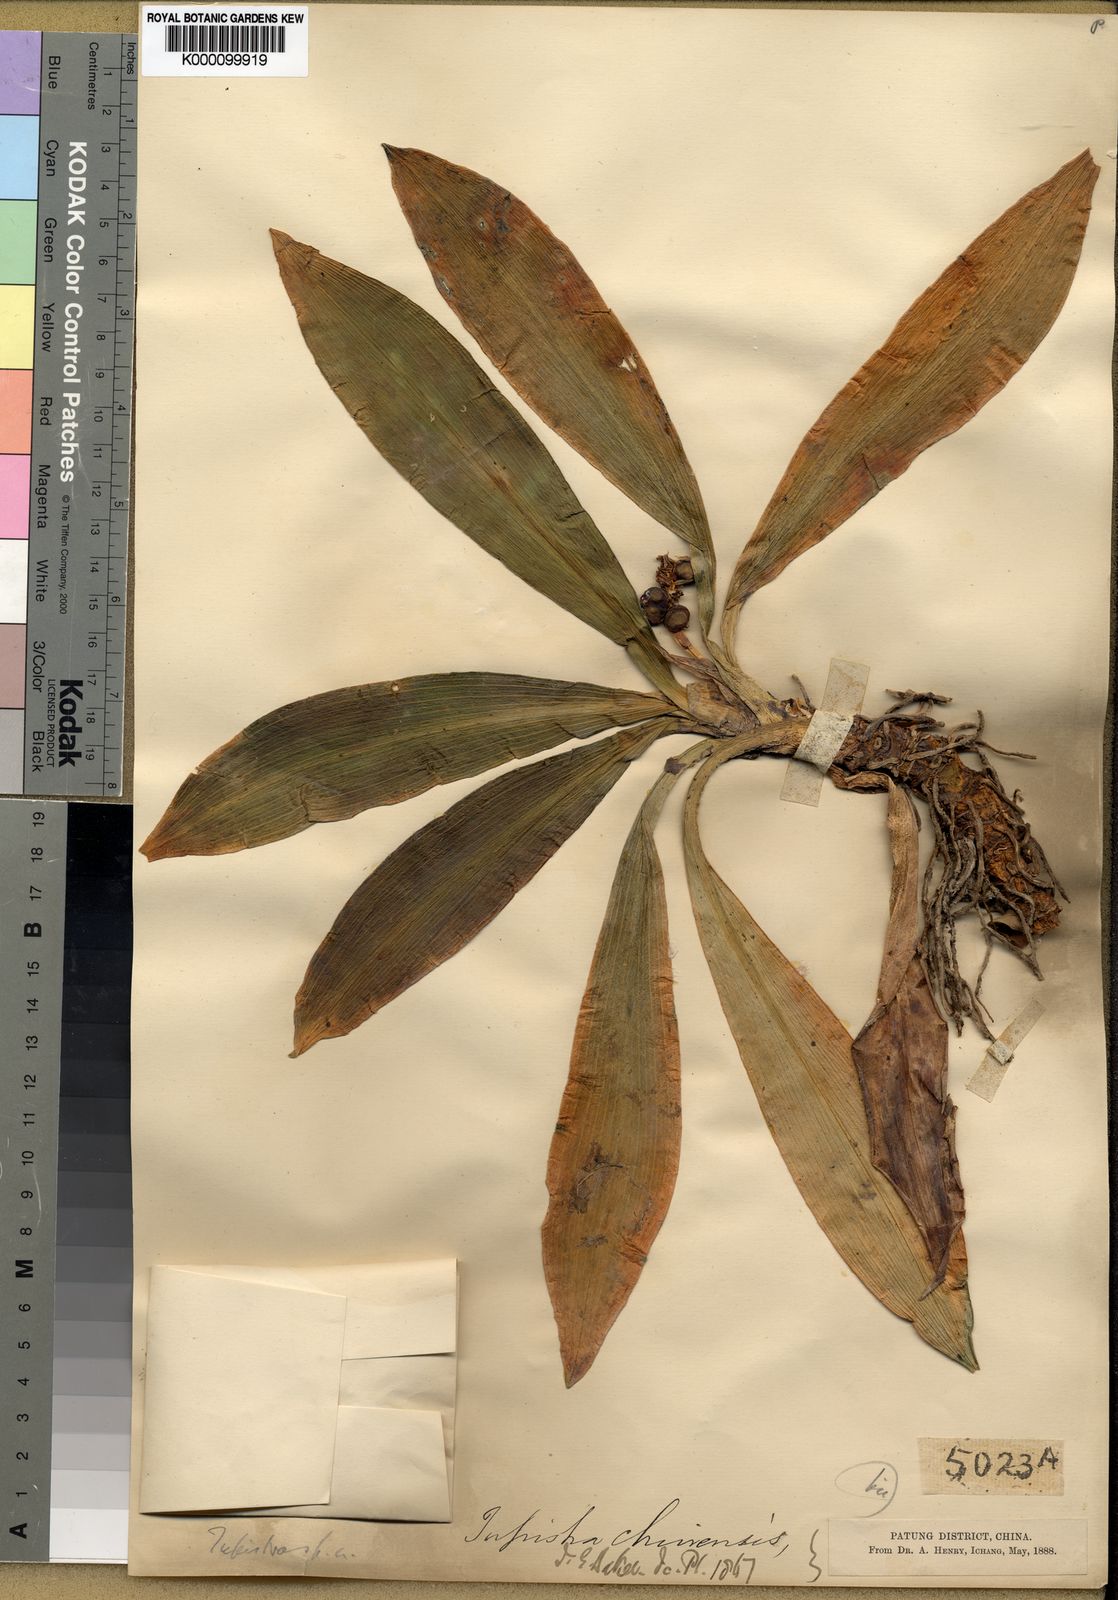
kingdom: Plantae
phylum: Tracheophyta
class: Liliopsida
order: Asparagales
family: Asparagaceae
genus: Rohdea
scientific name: Rohdea fargesii
